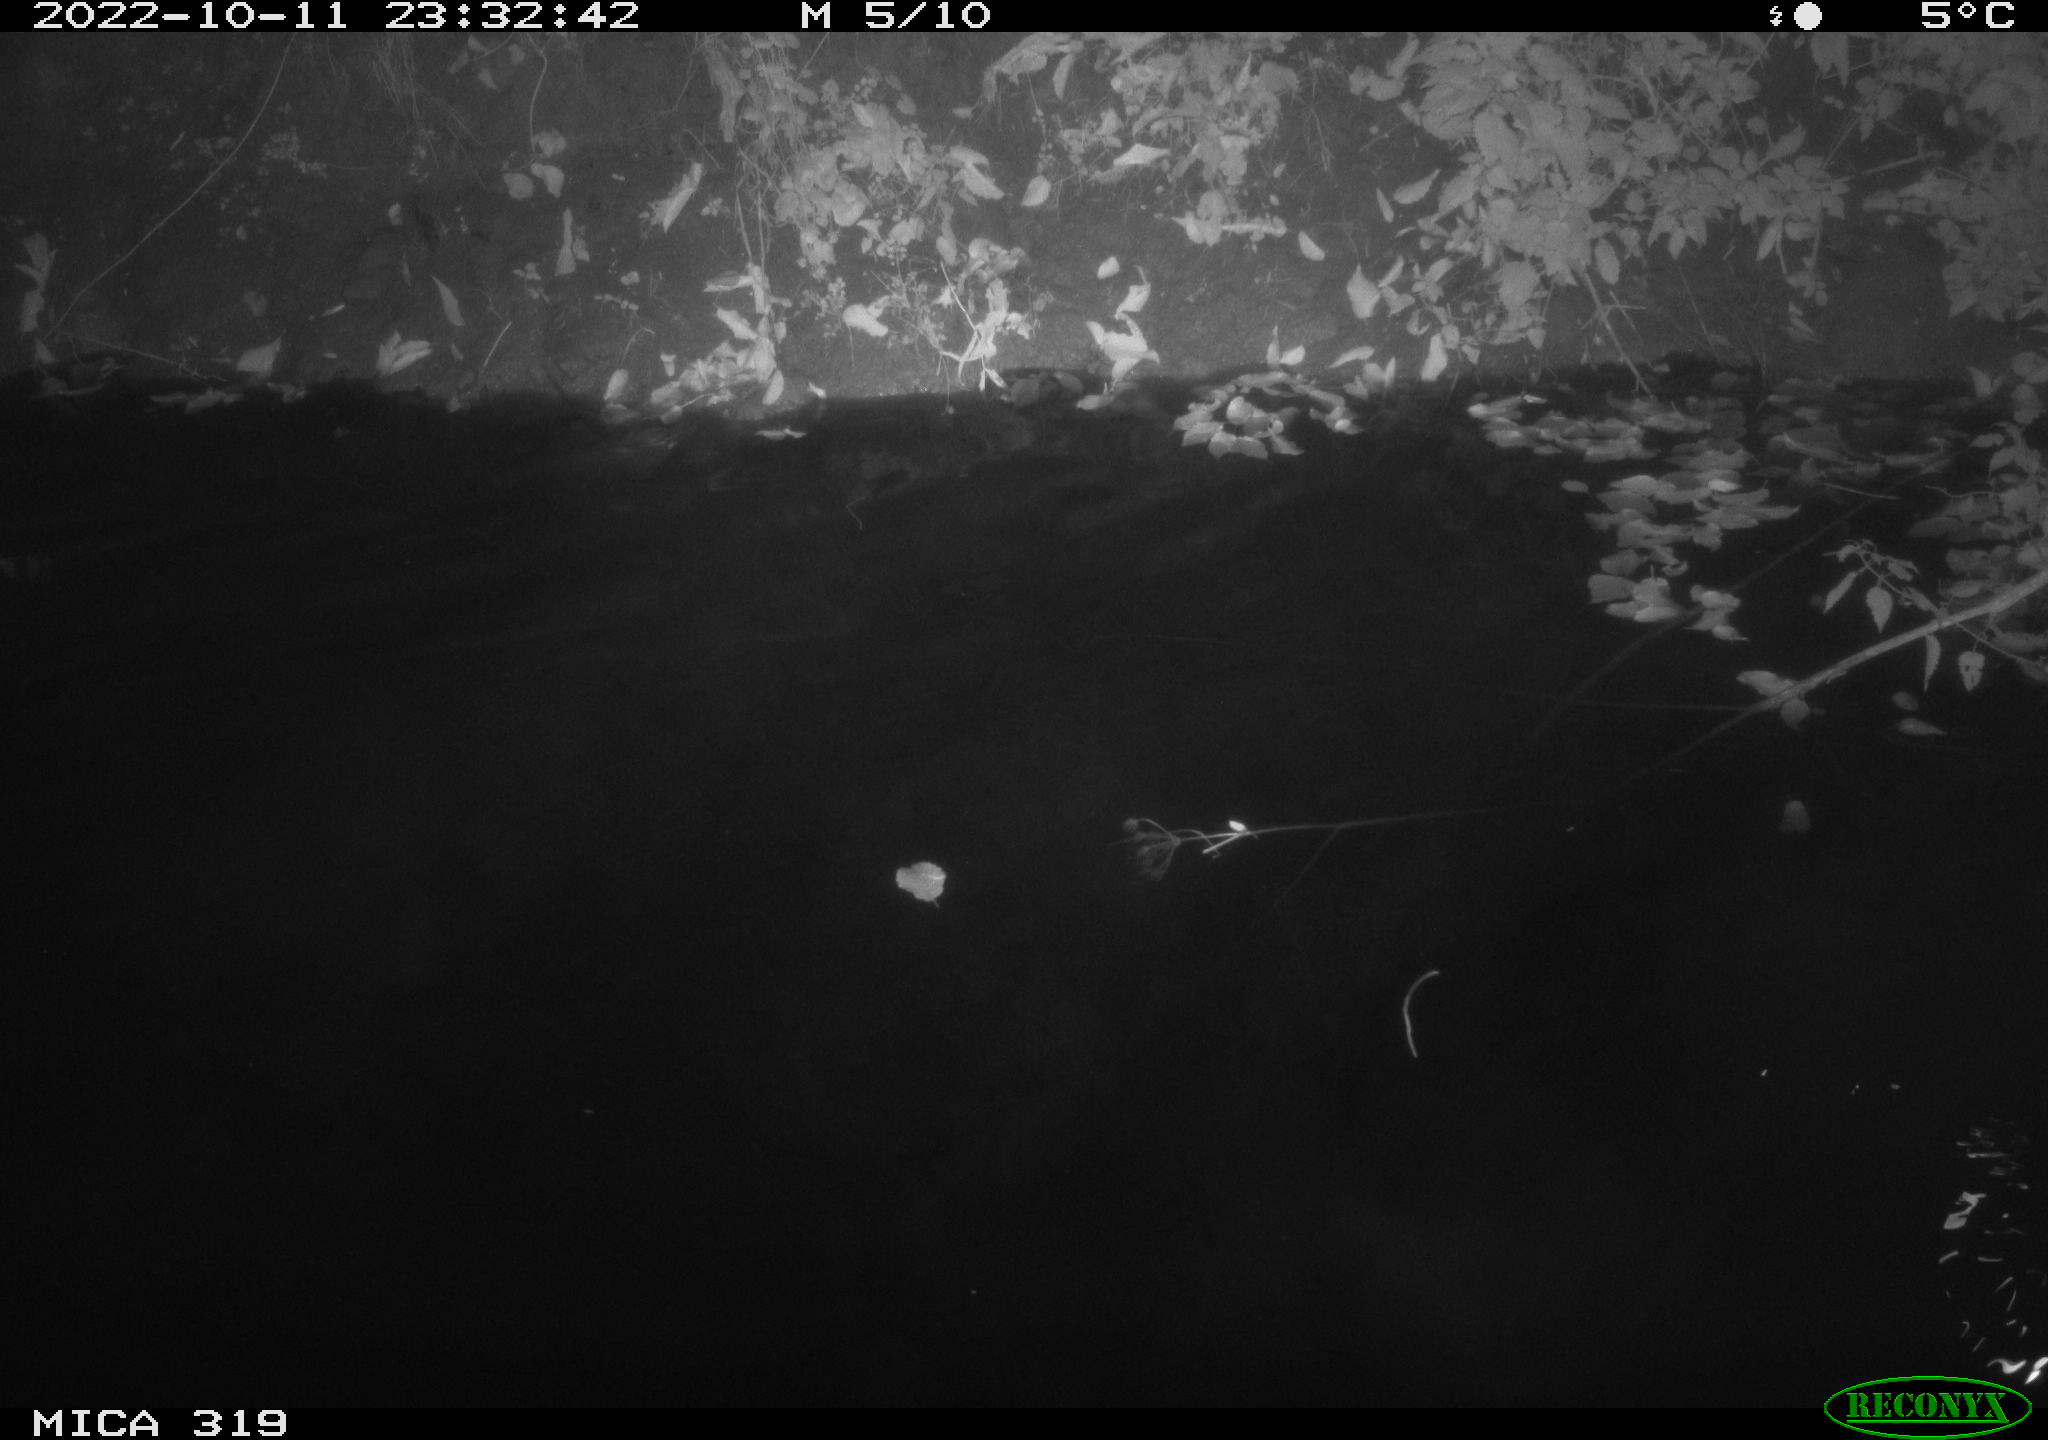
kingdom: Animalia
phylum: Chordata
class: Aves
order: Anseriformes
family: Anatidae
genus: Anas
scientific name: Anas
